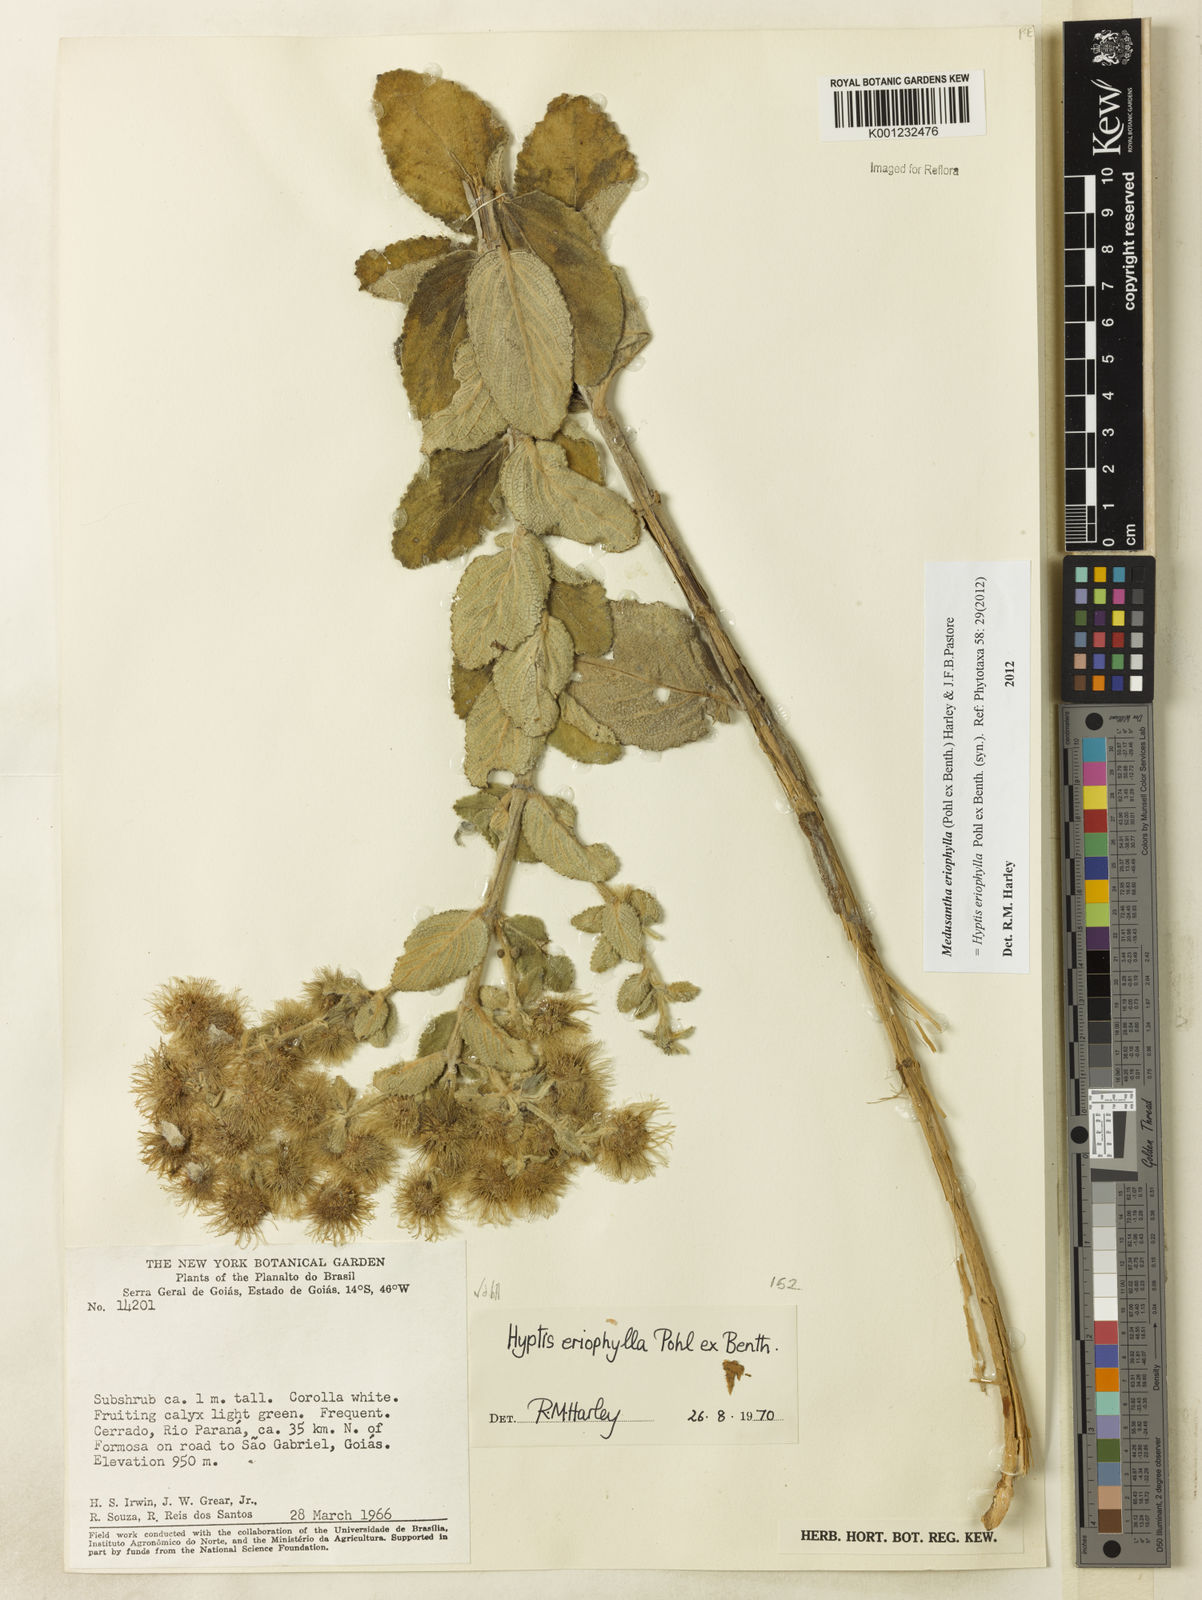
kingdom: Plantae
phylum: Tracheophyta
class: Magnoliopsida
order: Lamiales
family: Lamiaceae
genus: Medusantha
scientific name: Medusantha eriophylla
